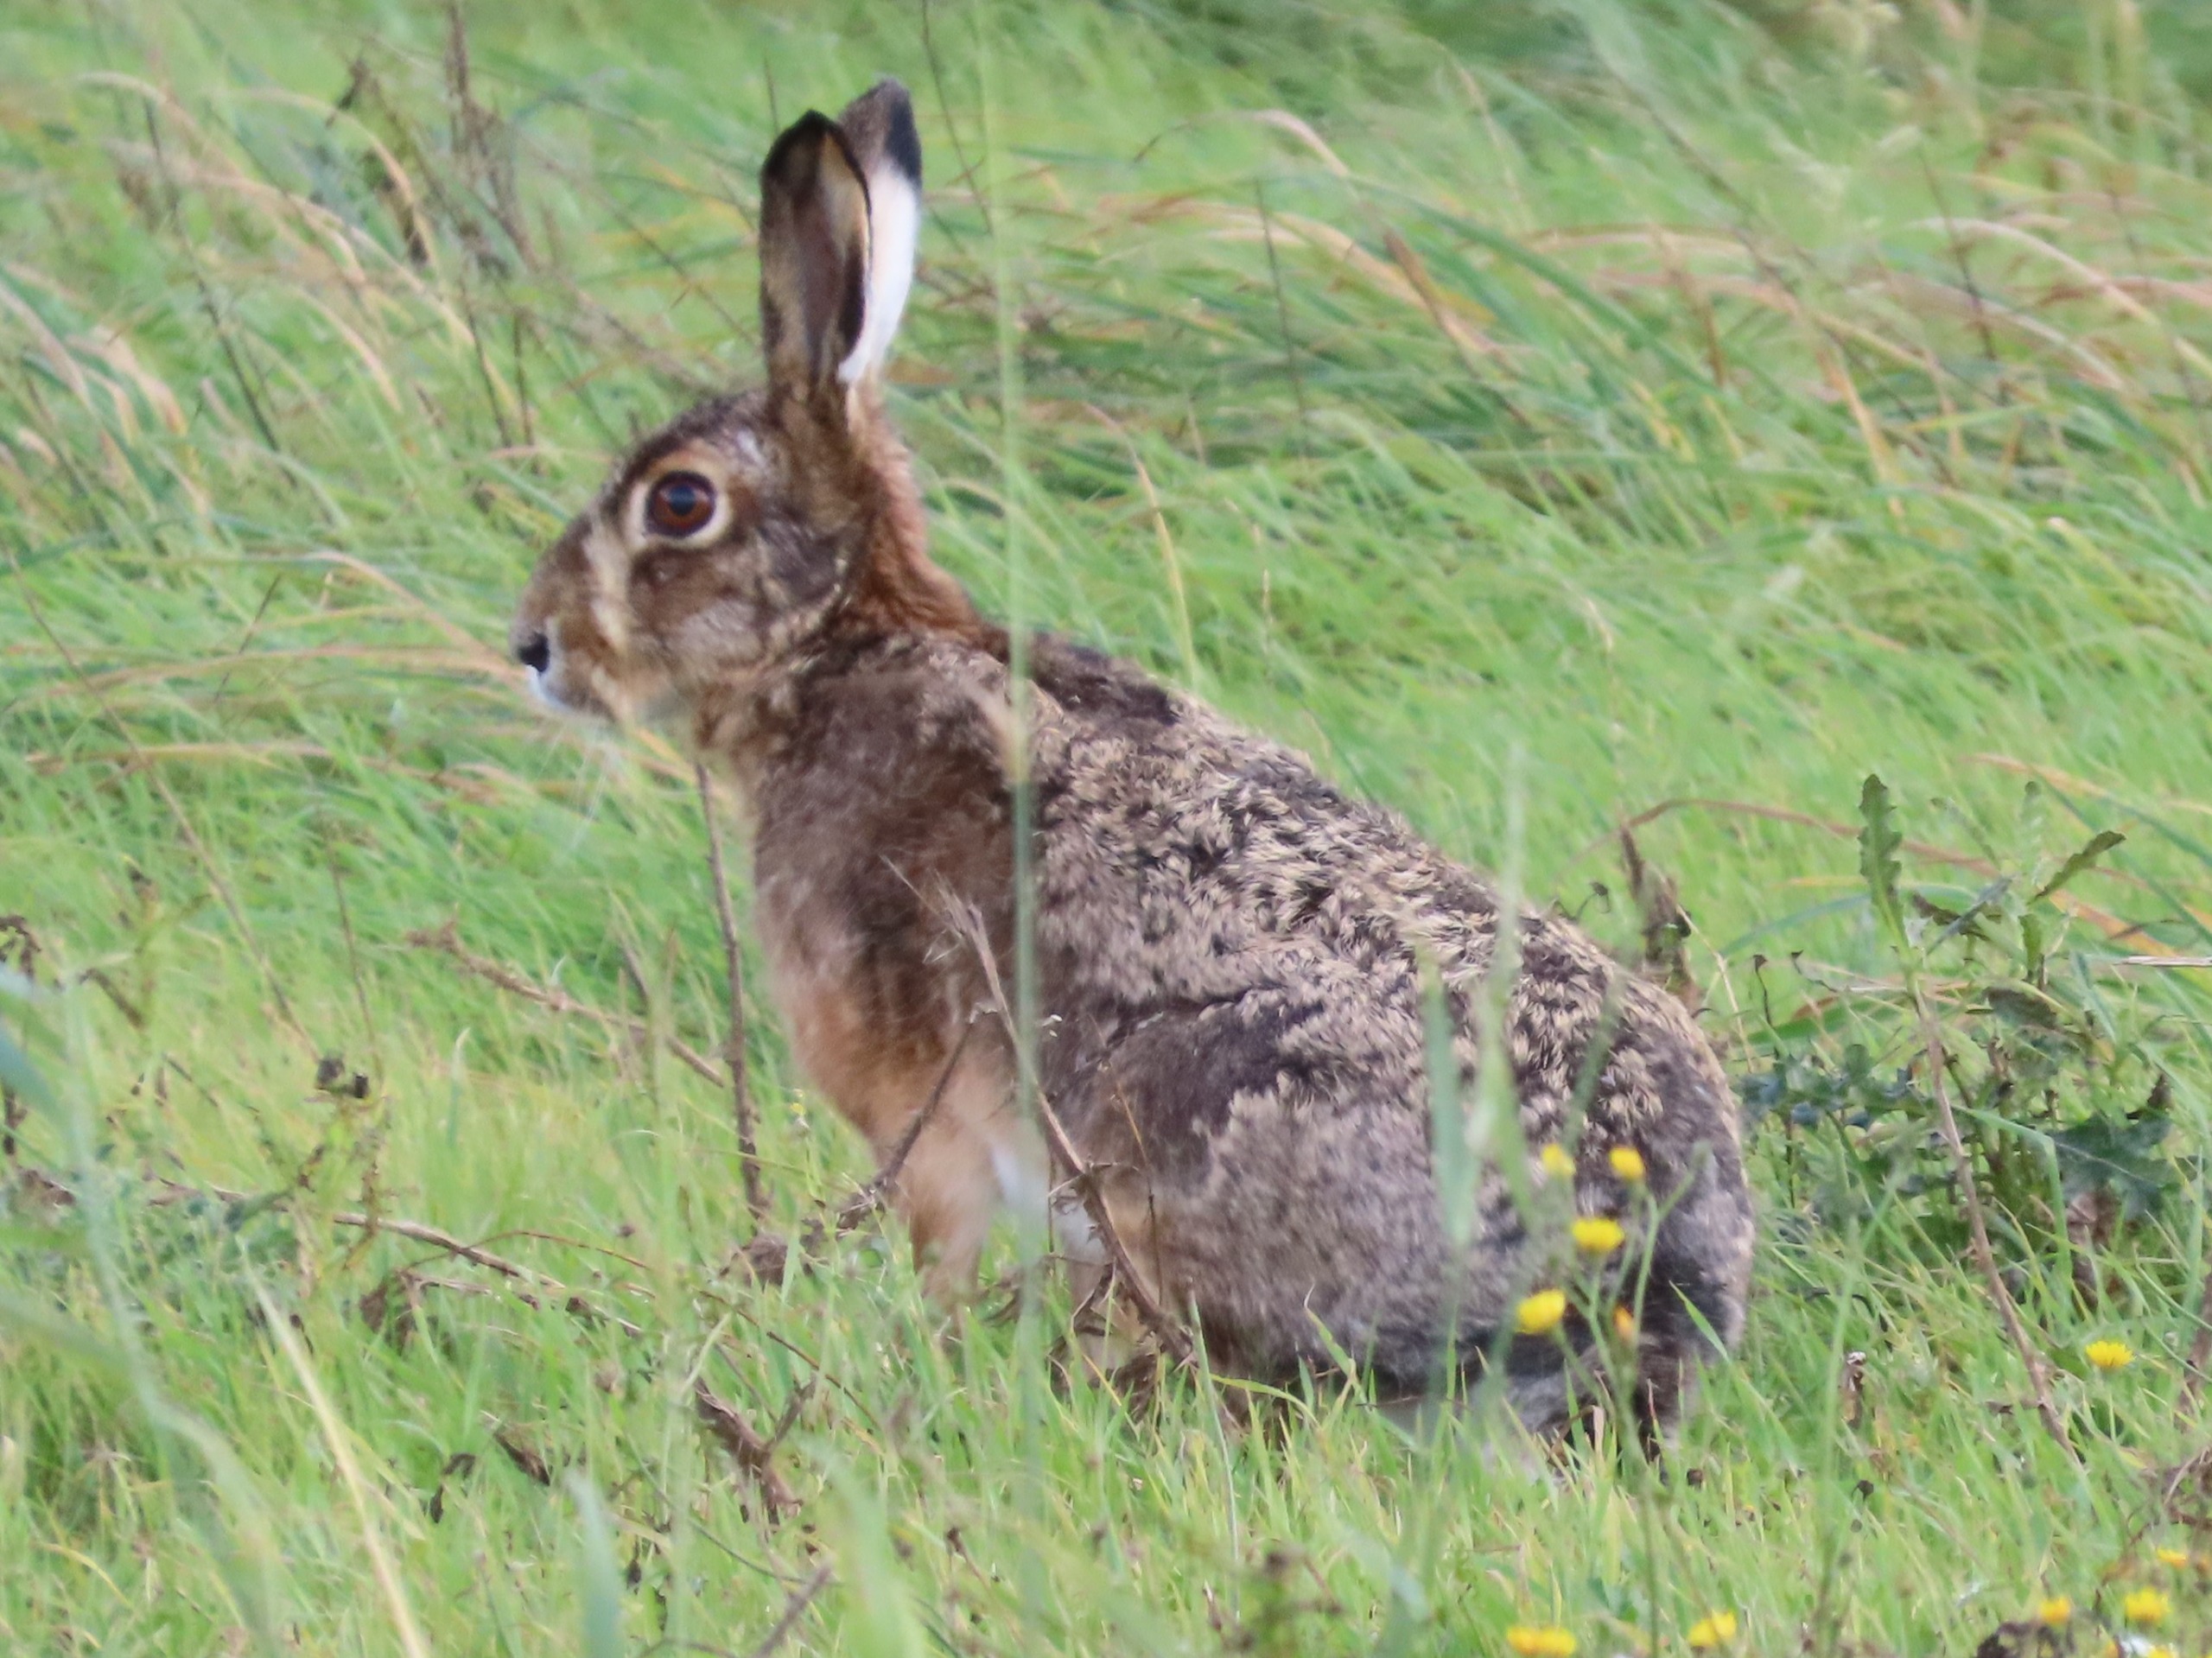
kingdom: Animalia
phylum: Chordata
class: Mammalia
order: Lagomorpha
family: Leporidae
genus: Lepus
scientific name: Lepus europaeus
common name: Hare
